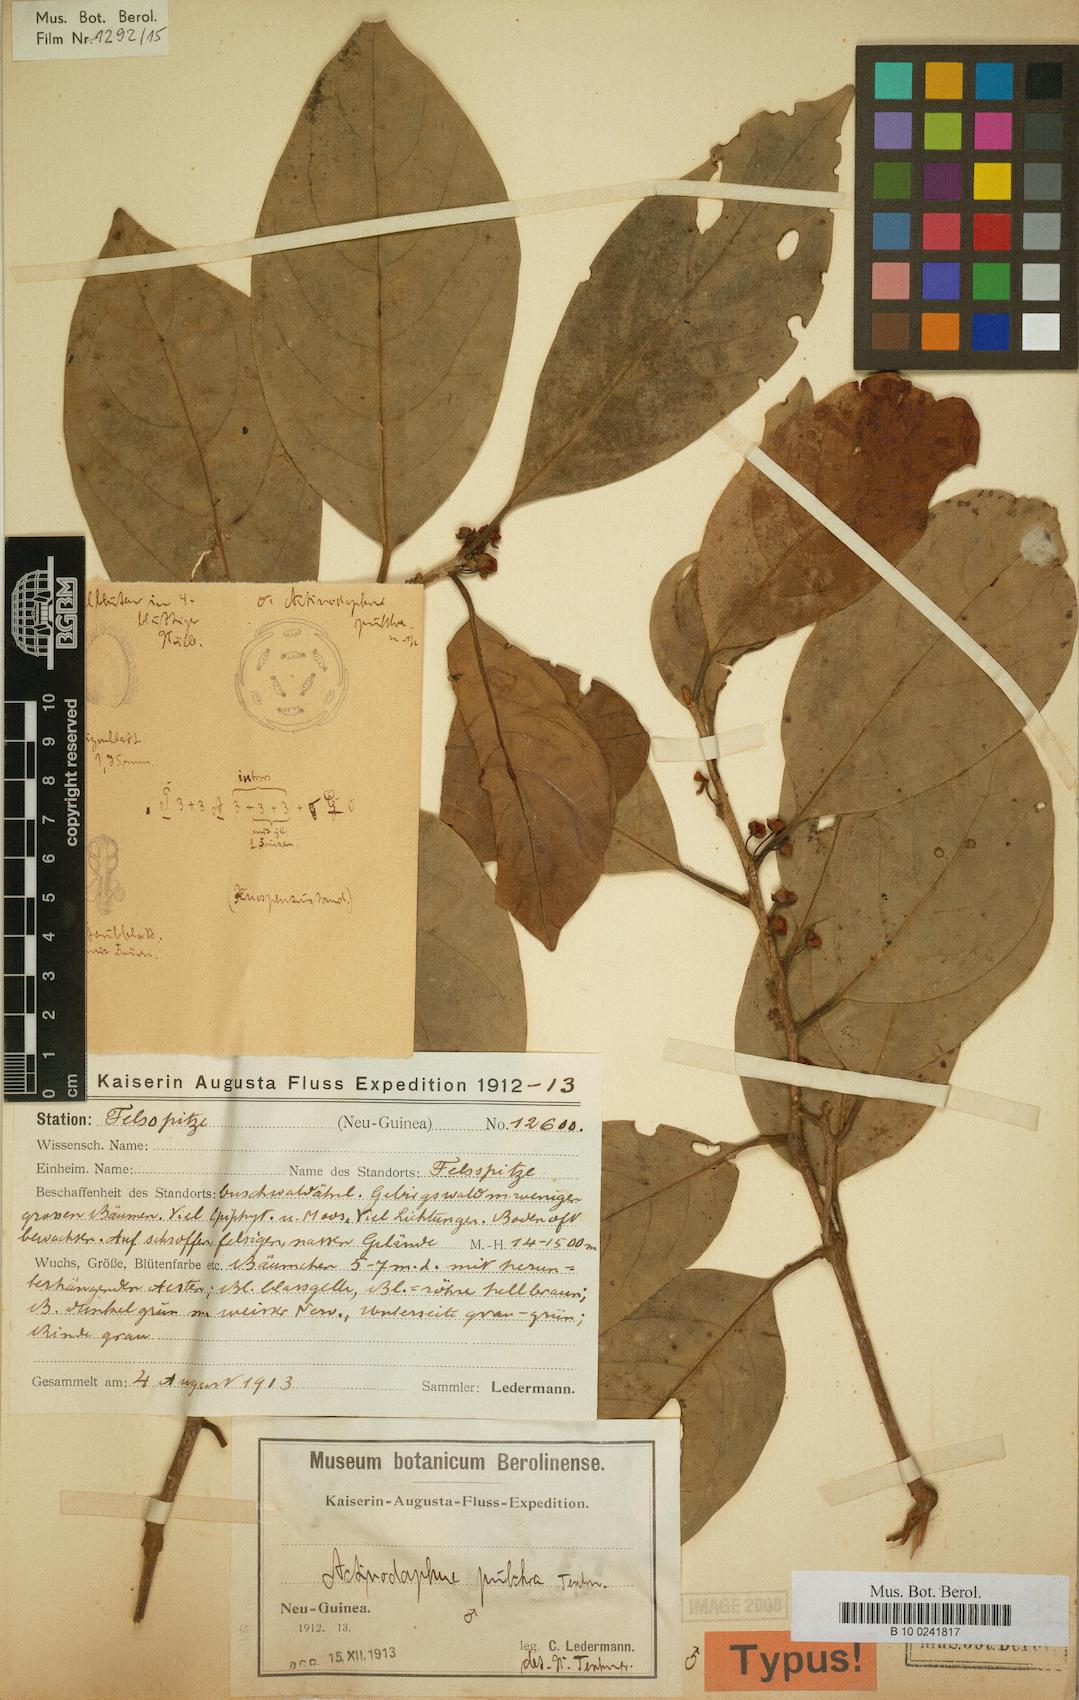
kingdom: Plantae
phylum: Tracheophyta
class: Magnoliopsida
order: Laurales
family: Lauraceae
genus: Litsea
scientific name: Litsea minor
